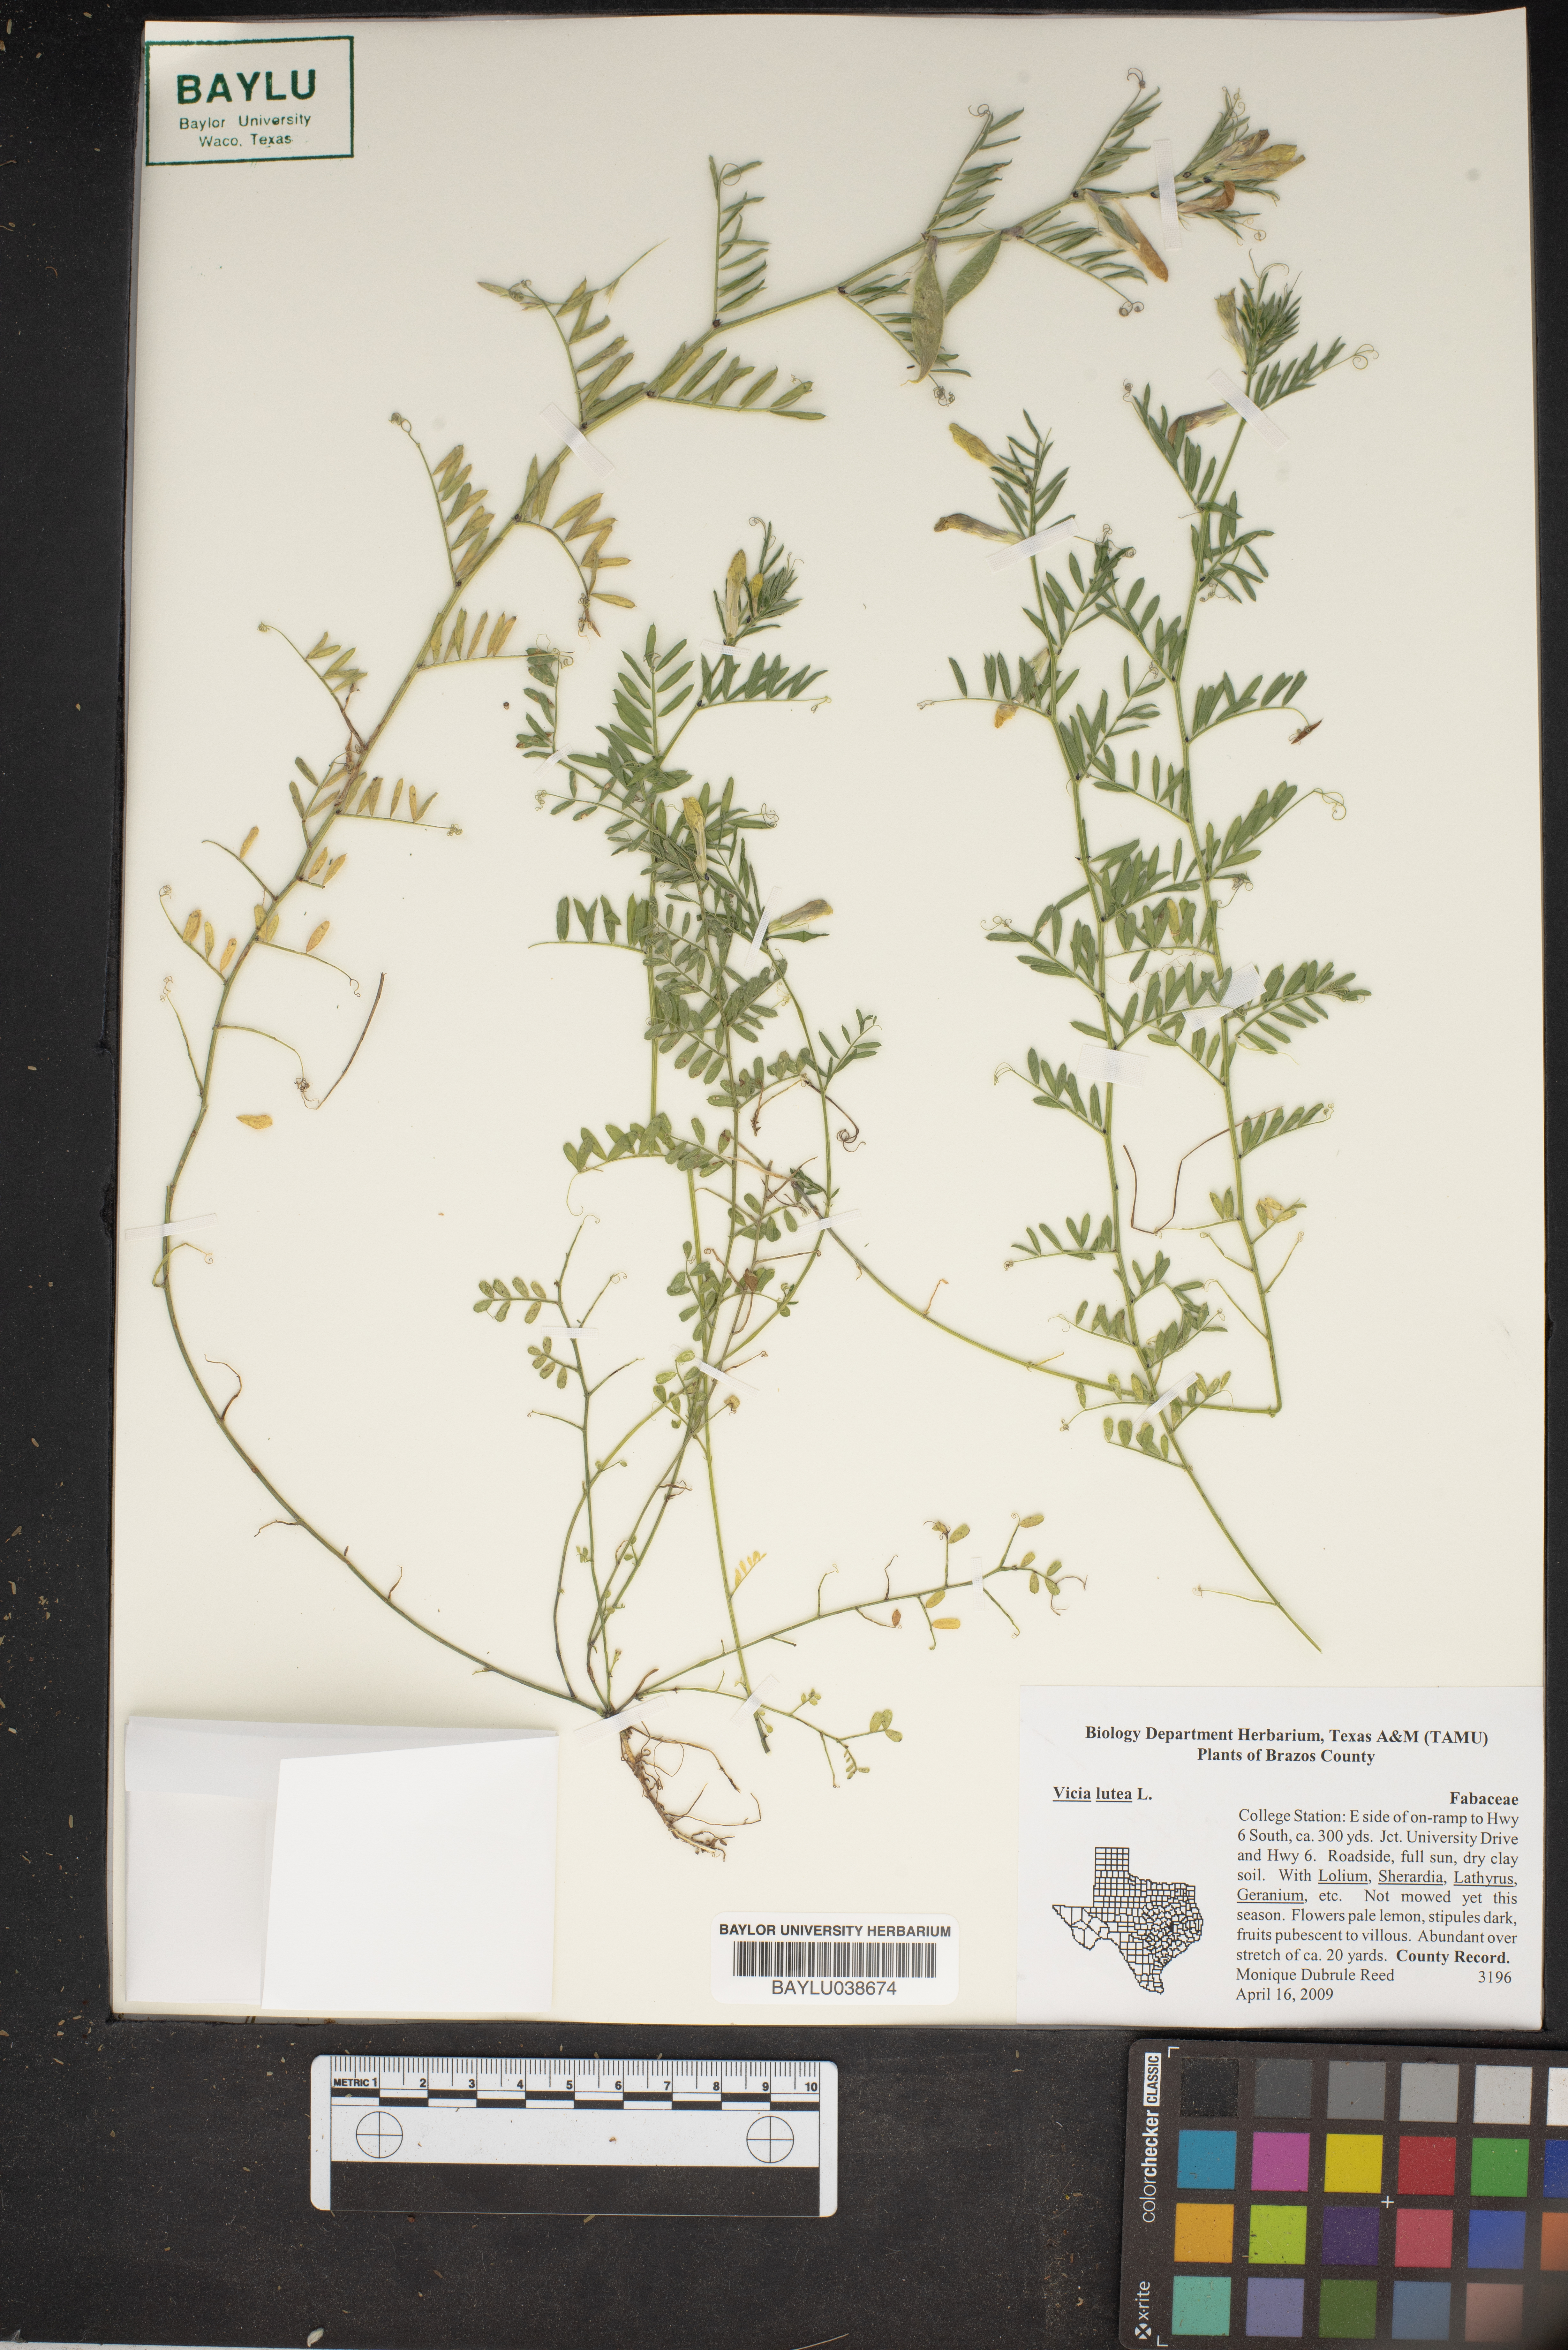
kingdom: Plantae
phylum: Tracheophyta
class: Magnoliopsida
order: Fabales
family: Fabaceae
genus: Vicia
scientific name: Vicia lutea
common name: Smooth yellow vetch
